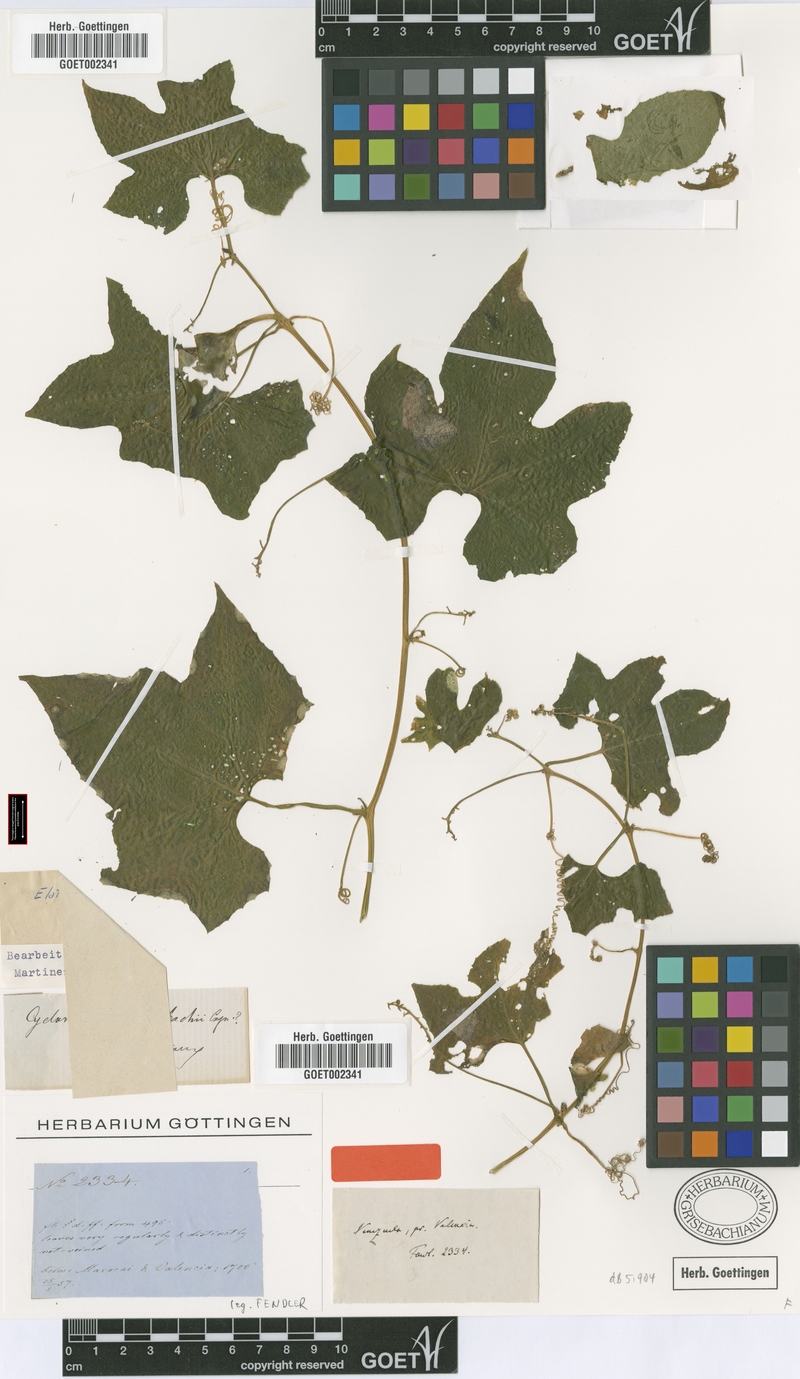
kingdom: Plantae
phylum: Tracheophyta
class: Magnoliopsida
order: Cucurbitales
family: Cucurbitaceae
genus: Hanburia
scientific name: Hanburia grisebachii
